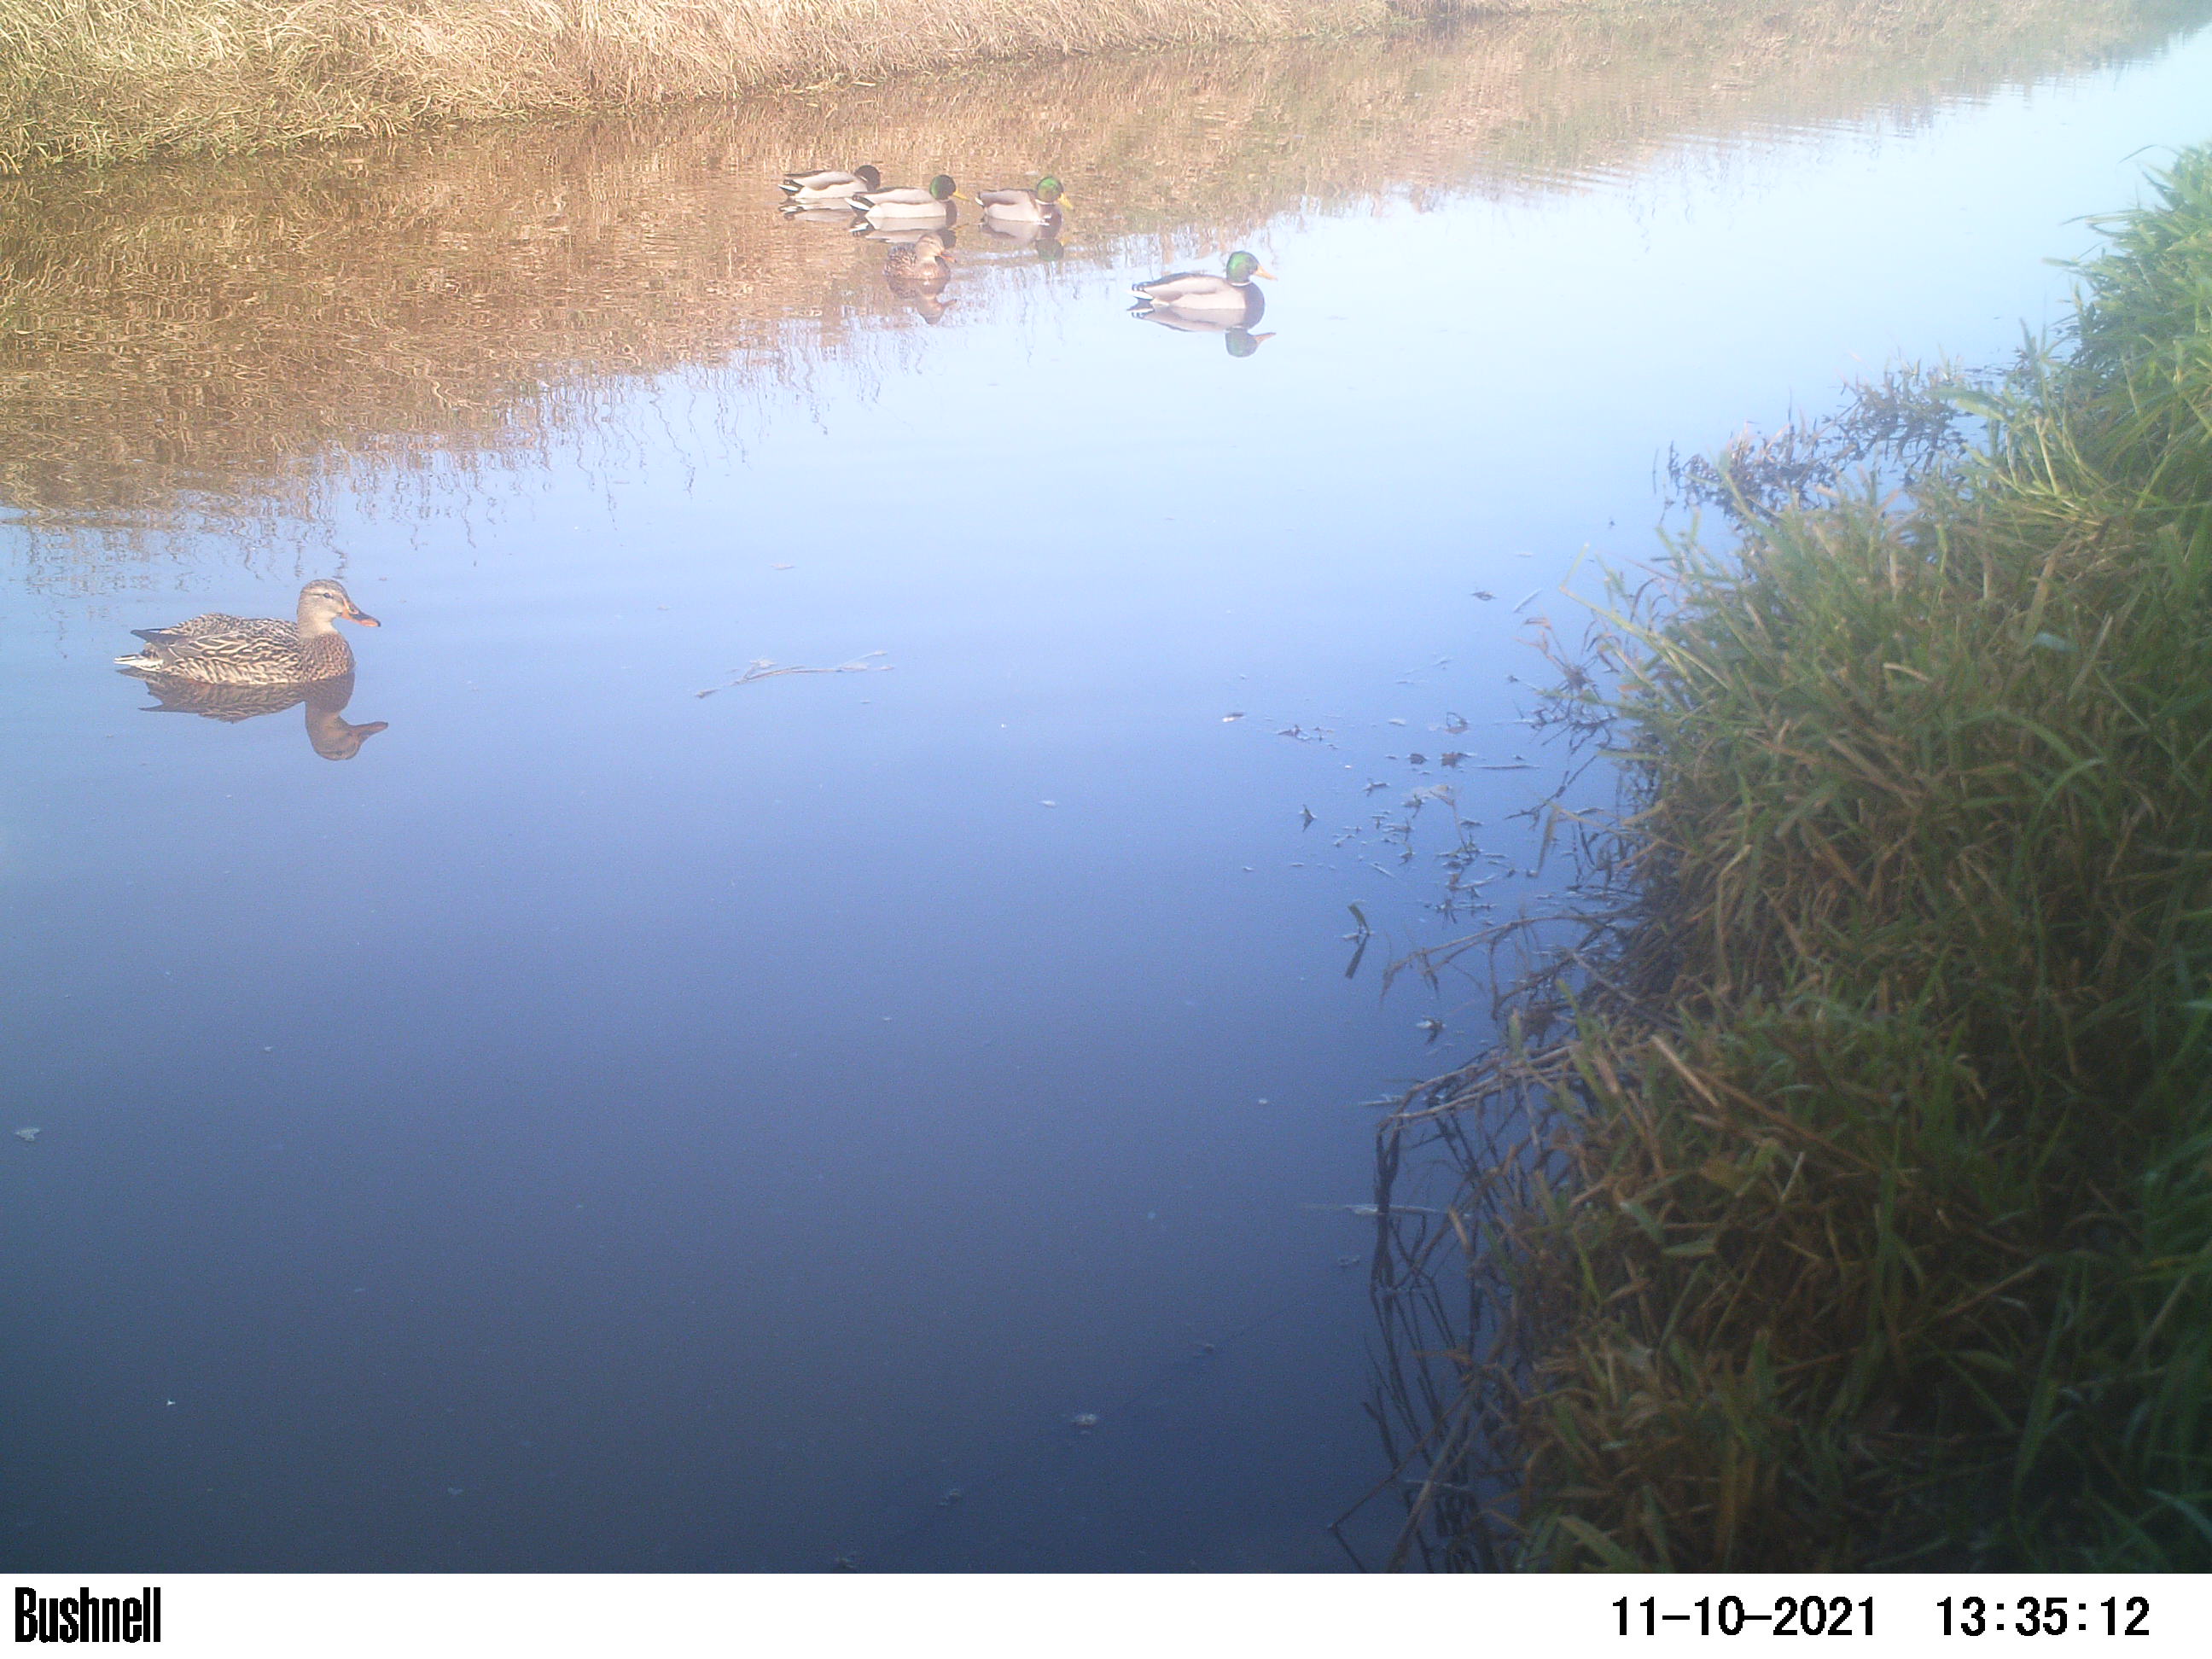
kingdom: Animalia
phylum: Chordata
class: Aves
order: Anseriformes
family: Anatidae
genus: Anas
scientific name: Anas
